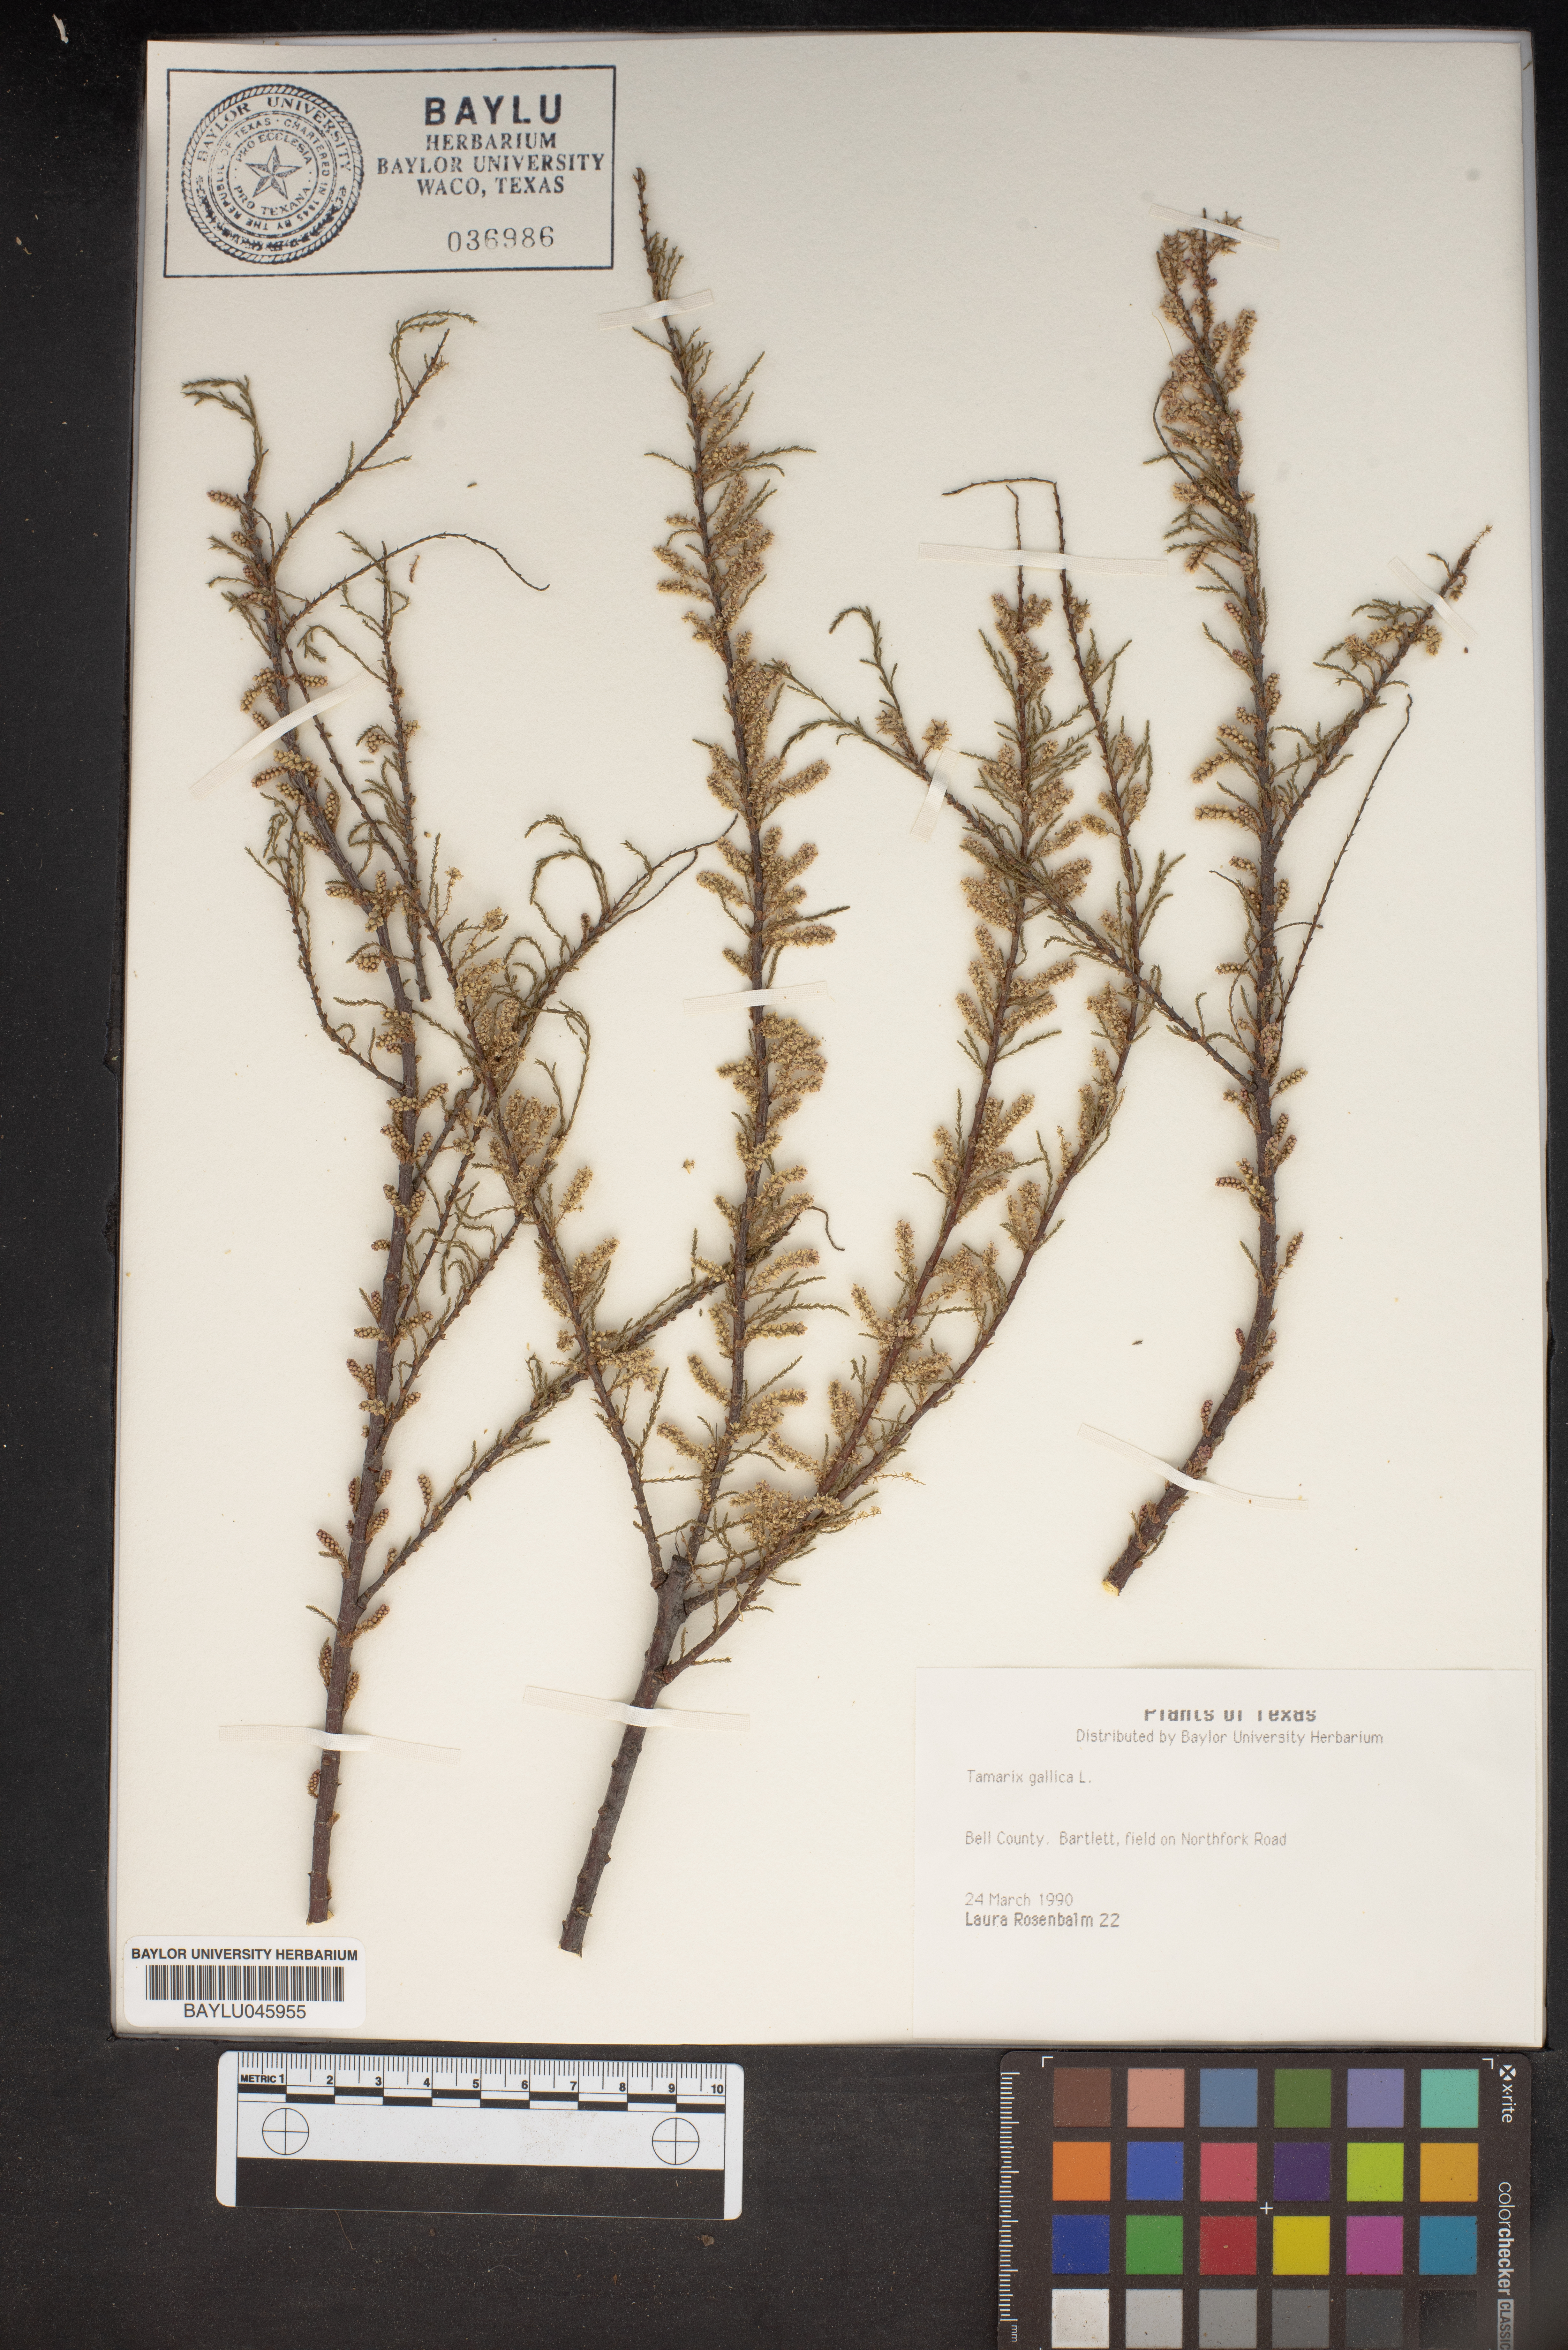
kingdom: Plantae
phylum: Tracheophyta
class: Magnoliopsida
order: Caryophyllales
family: Tamaricaceae
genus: Tamarix
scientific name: Tamarix gallica
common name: Tamarisk
